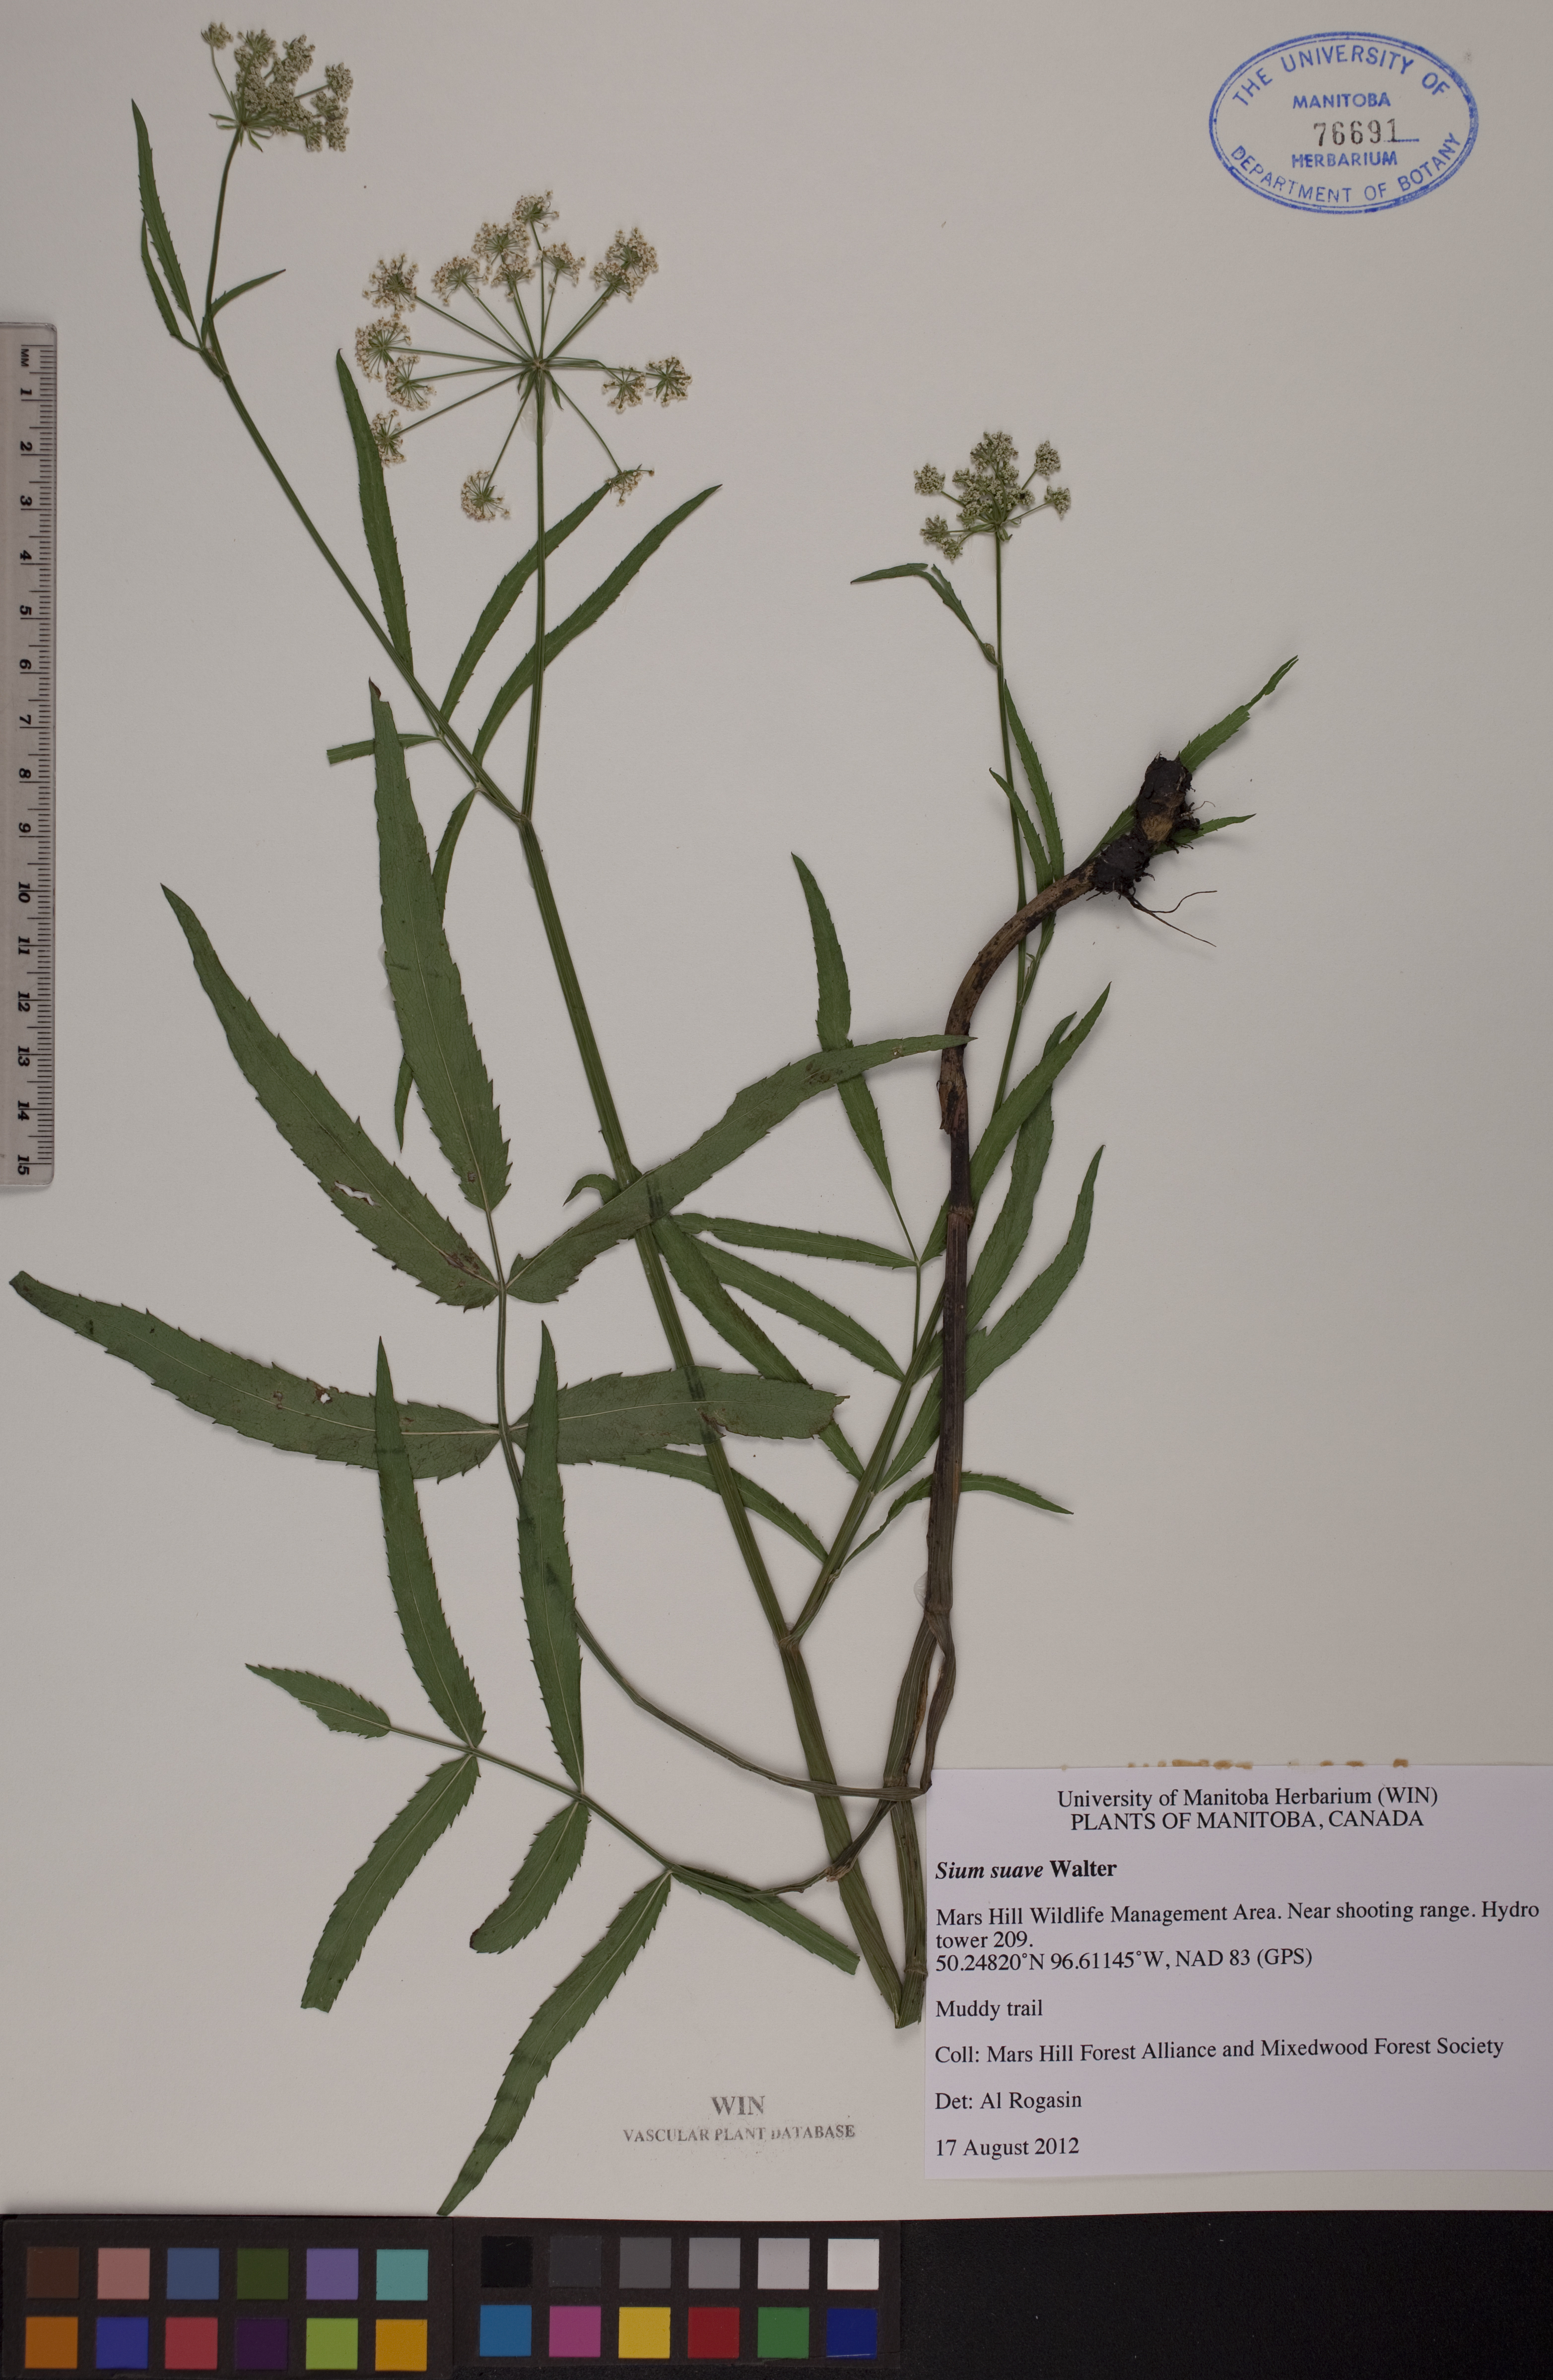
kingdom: Plantae
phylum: Tracheophyta
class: Magnoliopsida
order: Apiales
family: Apiaceae
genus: Sium
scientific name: Sium suave
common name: Hemlock water-parsnip
